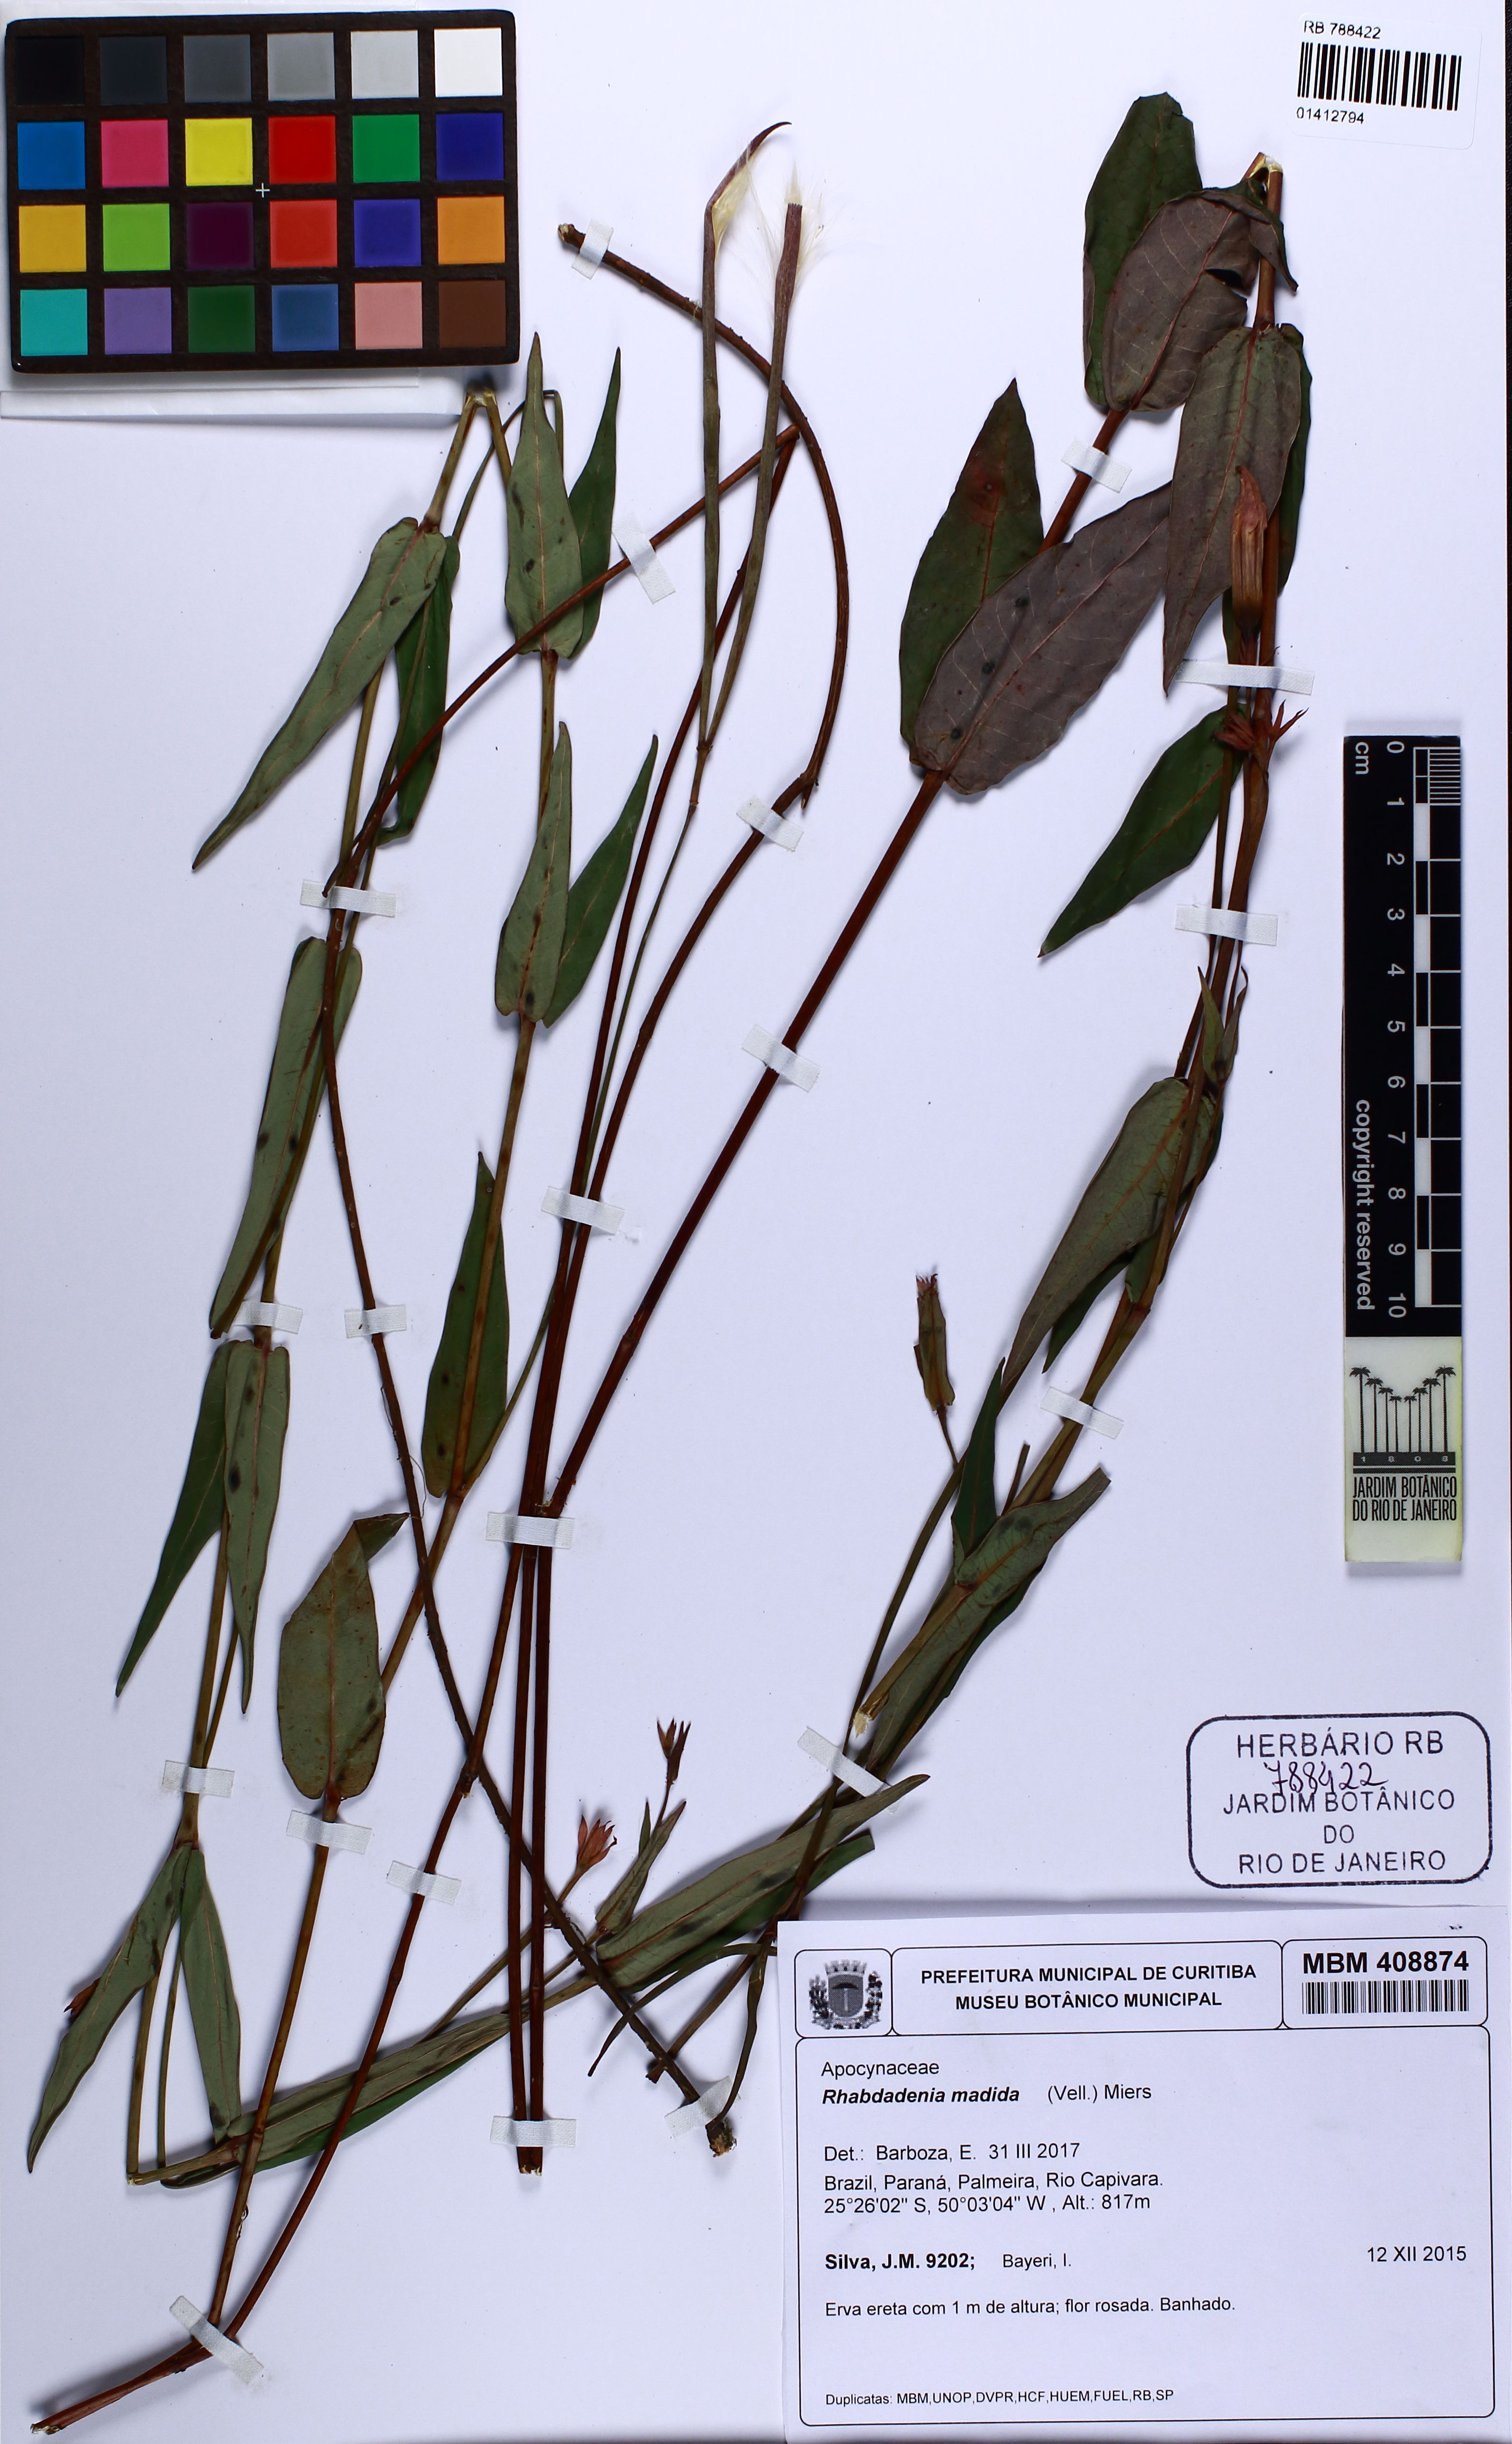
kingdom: Plantae
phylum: Tracheophyta
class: Magnoliopsida
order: Gentianales
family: Apocynaceae
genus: Rhabdadenia
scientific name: Rhabdadenia madida
